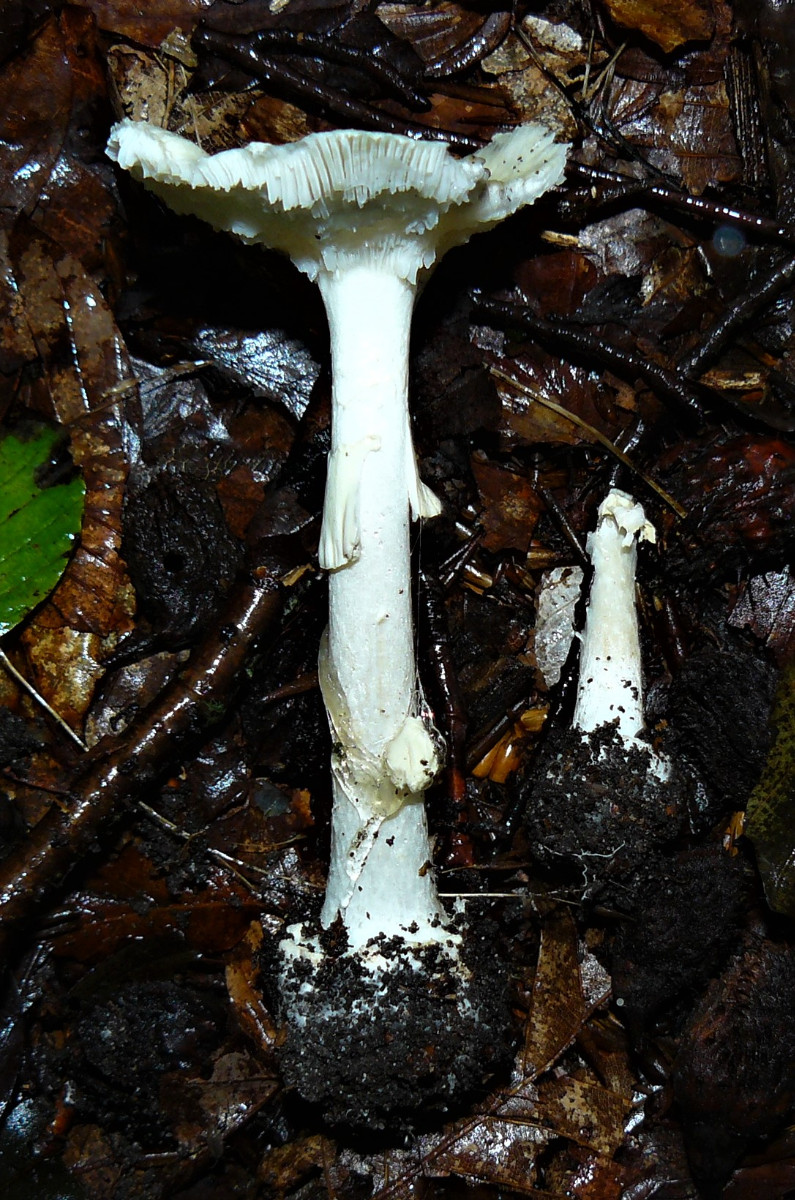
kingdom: Fungi
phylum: Basidiomycota
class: Agaricomycetes
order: Agaricales
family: Amanitaceae
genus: Amanita
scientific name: Amanita citrina
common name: kugleknoldet fluesvamp
